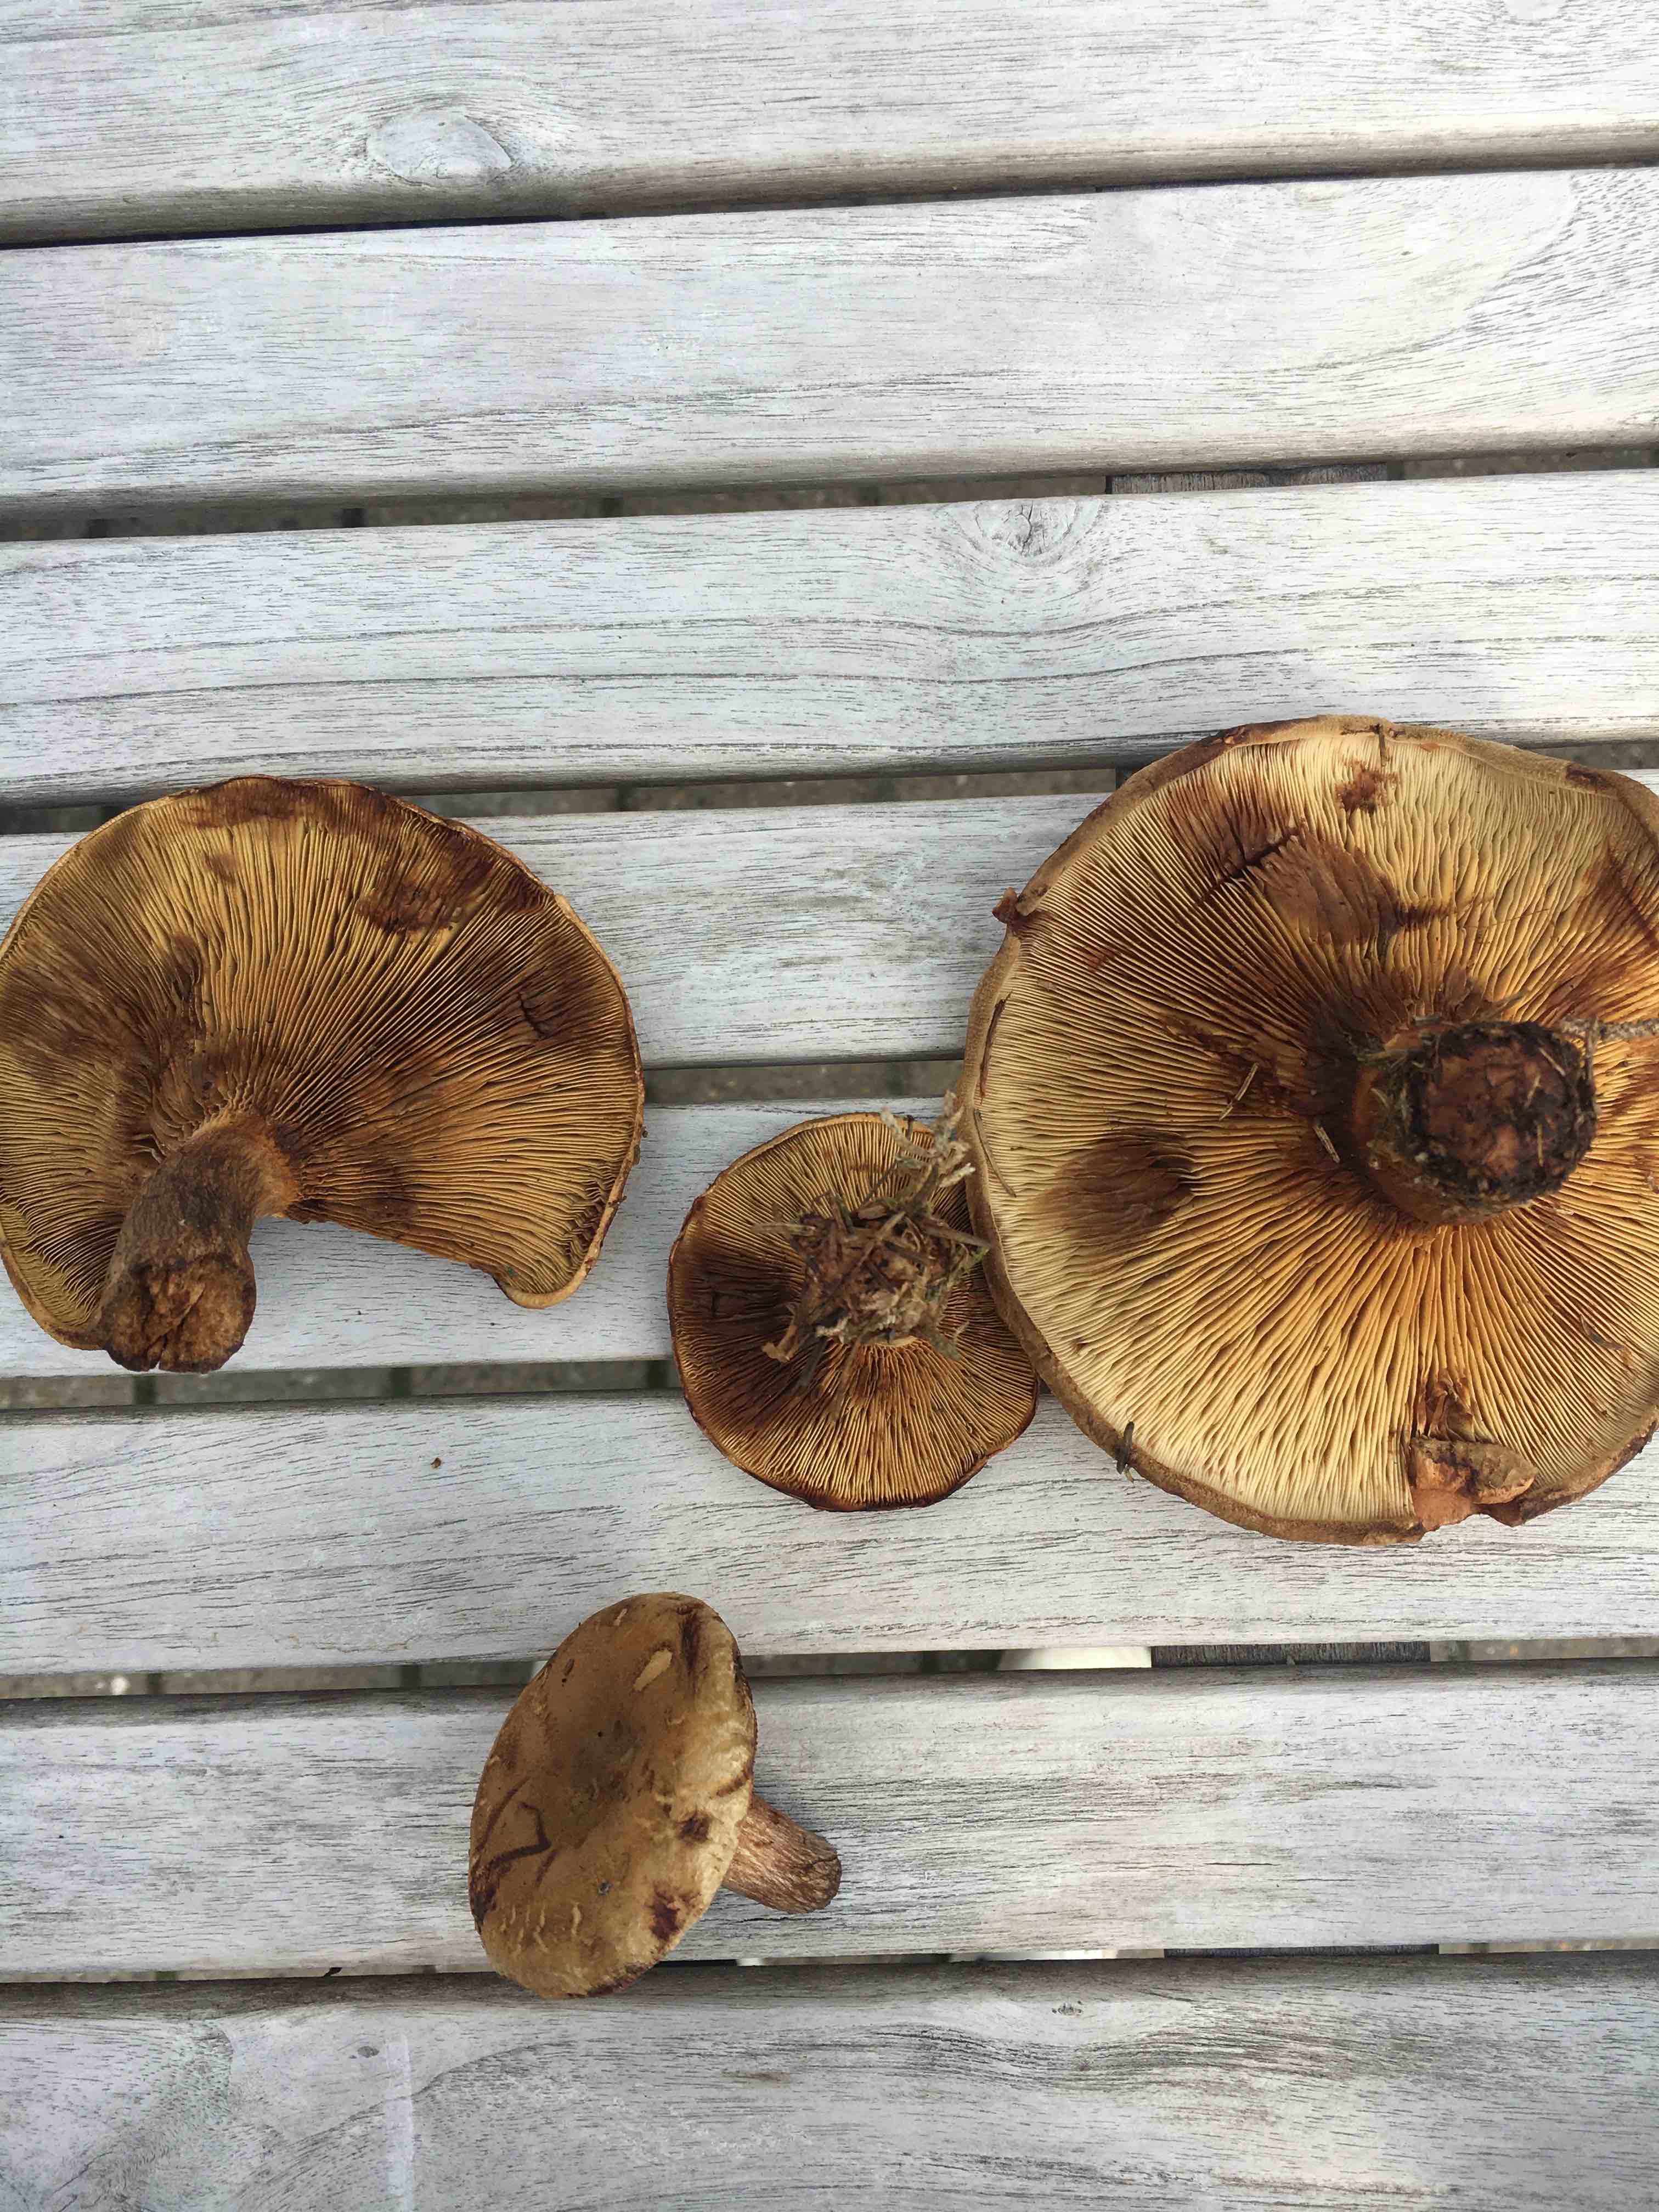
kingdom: Fungi
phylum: Basidiomycota
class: Agaricomycetes
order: Boletales
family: Paxillaceae
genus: Paxillus
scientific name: Paxillus
